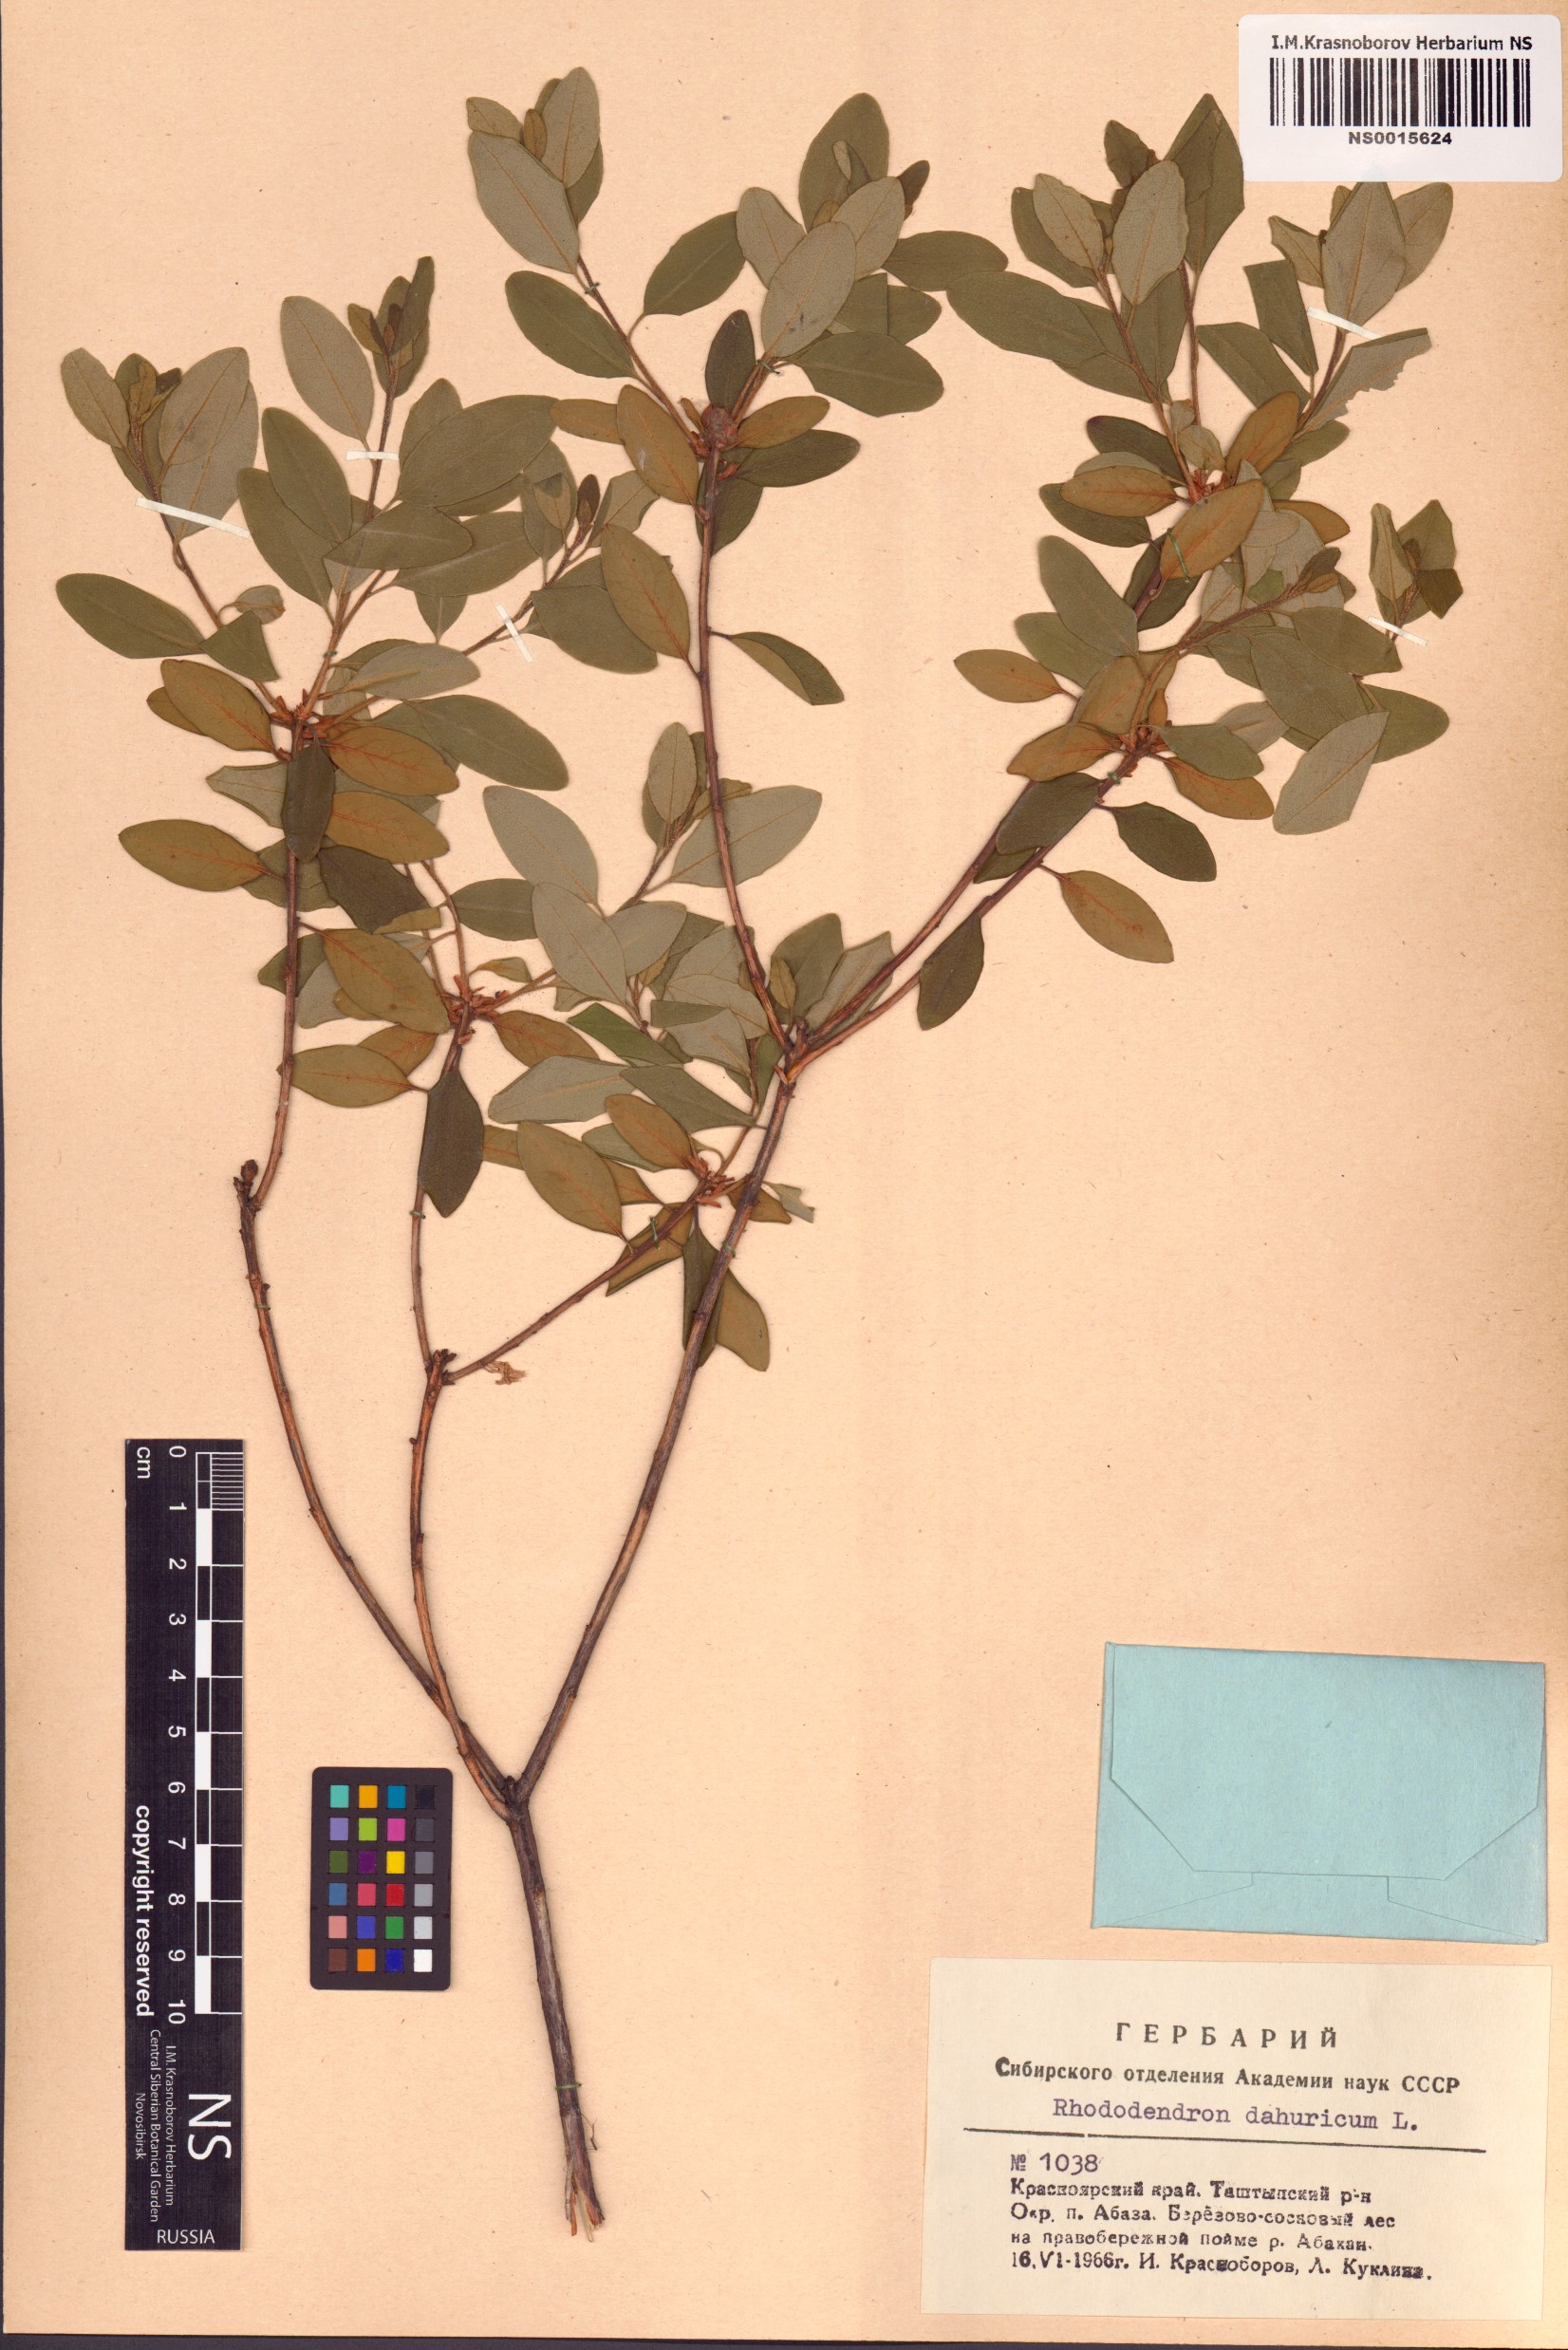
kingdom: Plantae
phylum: Tracheophyta
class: Magnoliopsida
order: Ericales
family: Ericaceae
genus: Rhododendron
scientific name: Rhododendron dauricum
